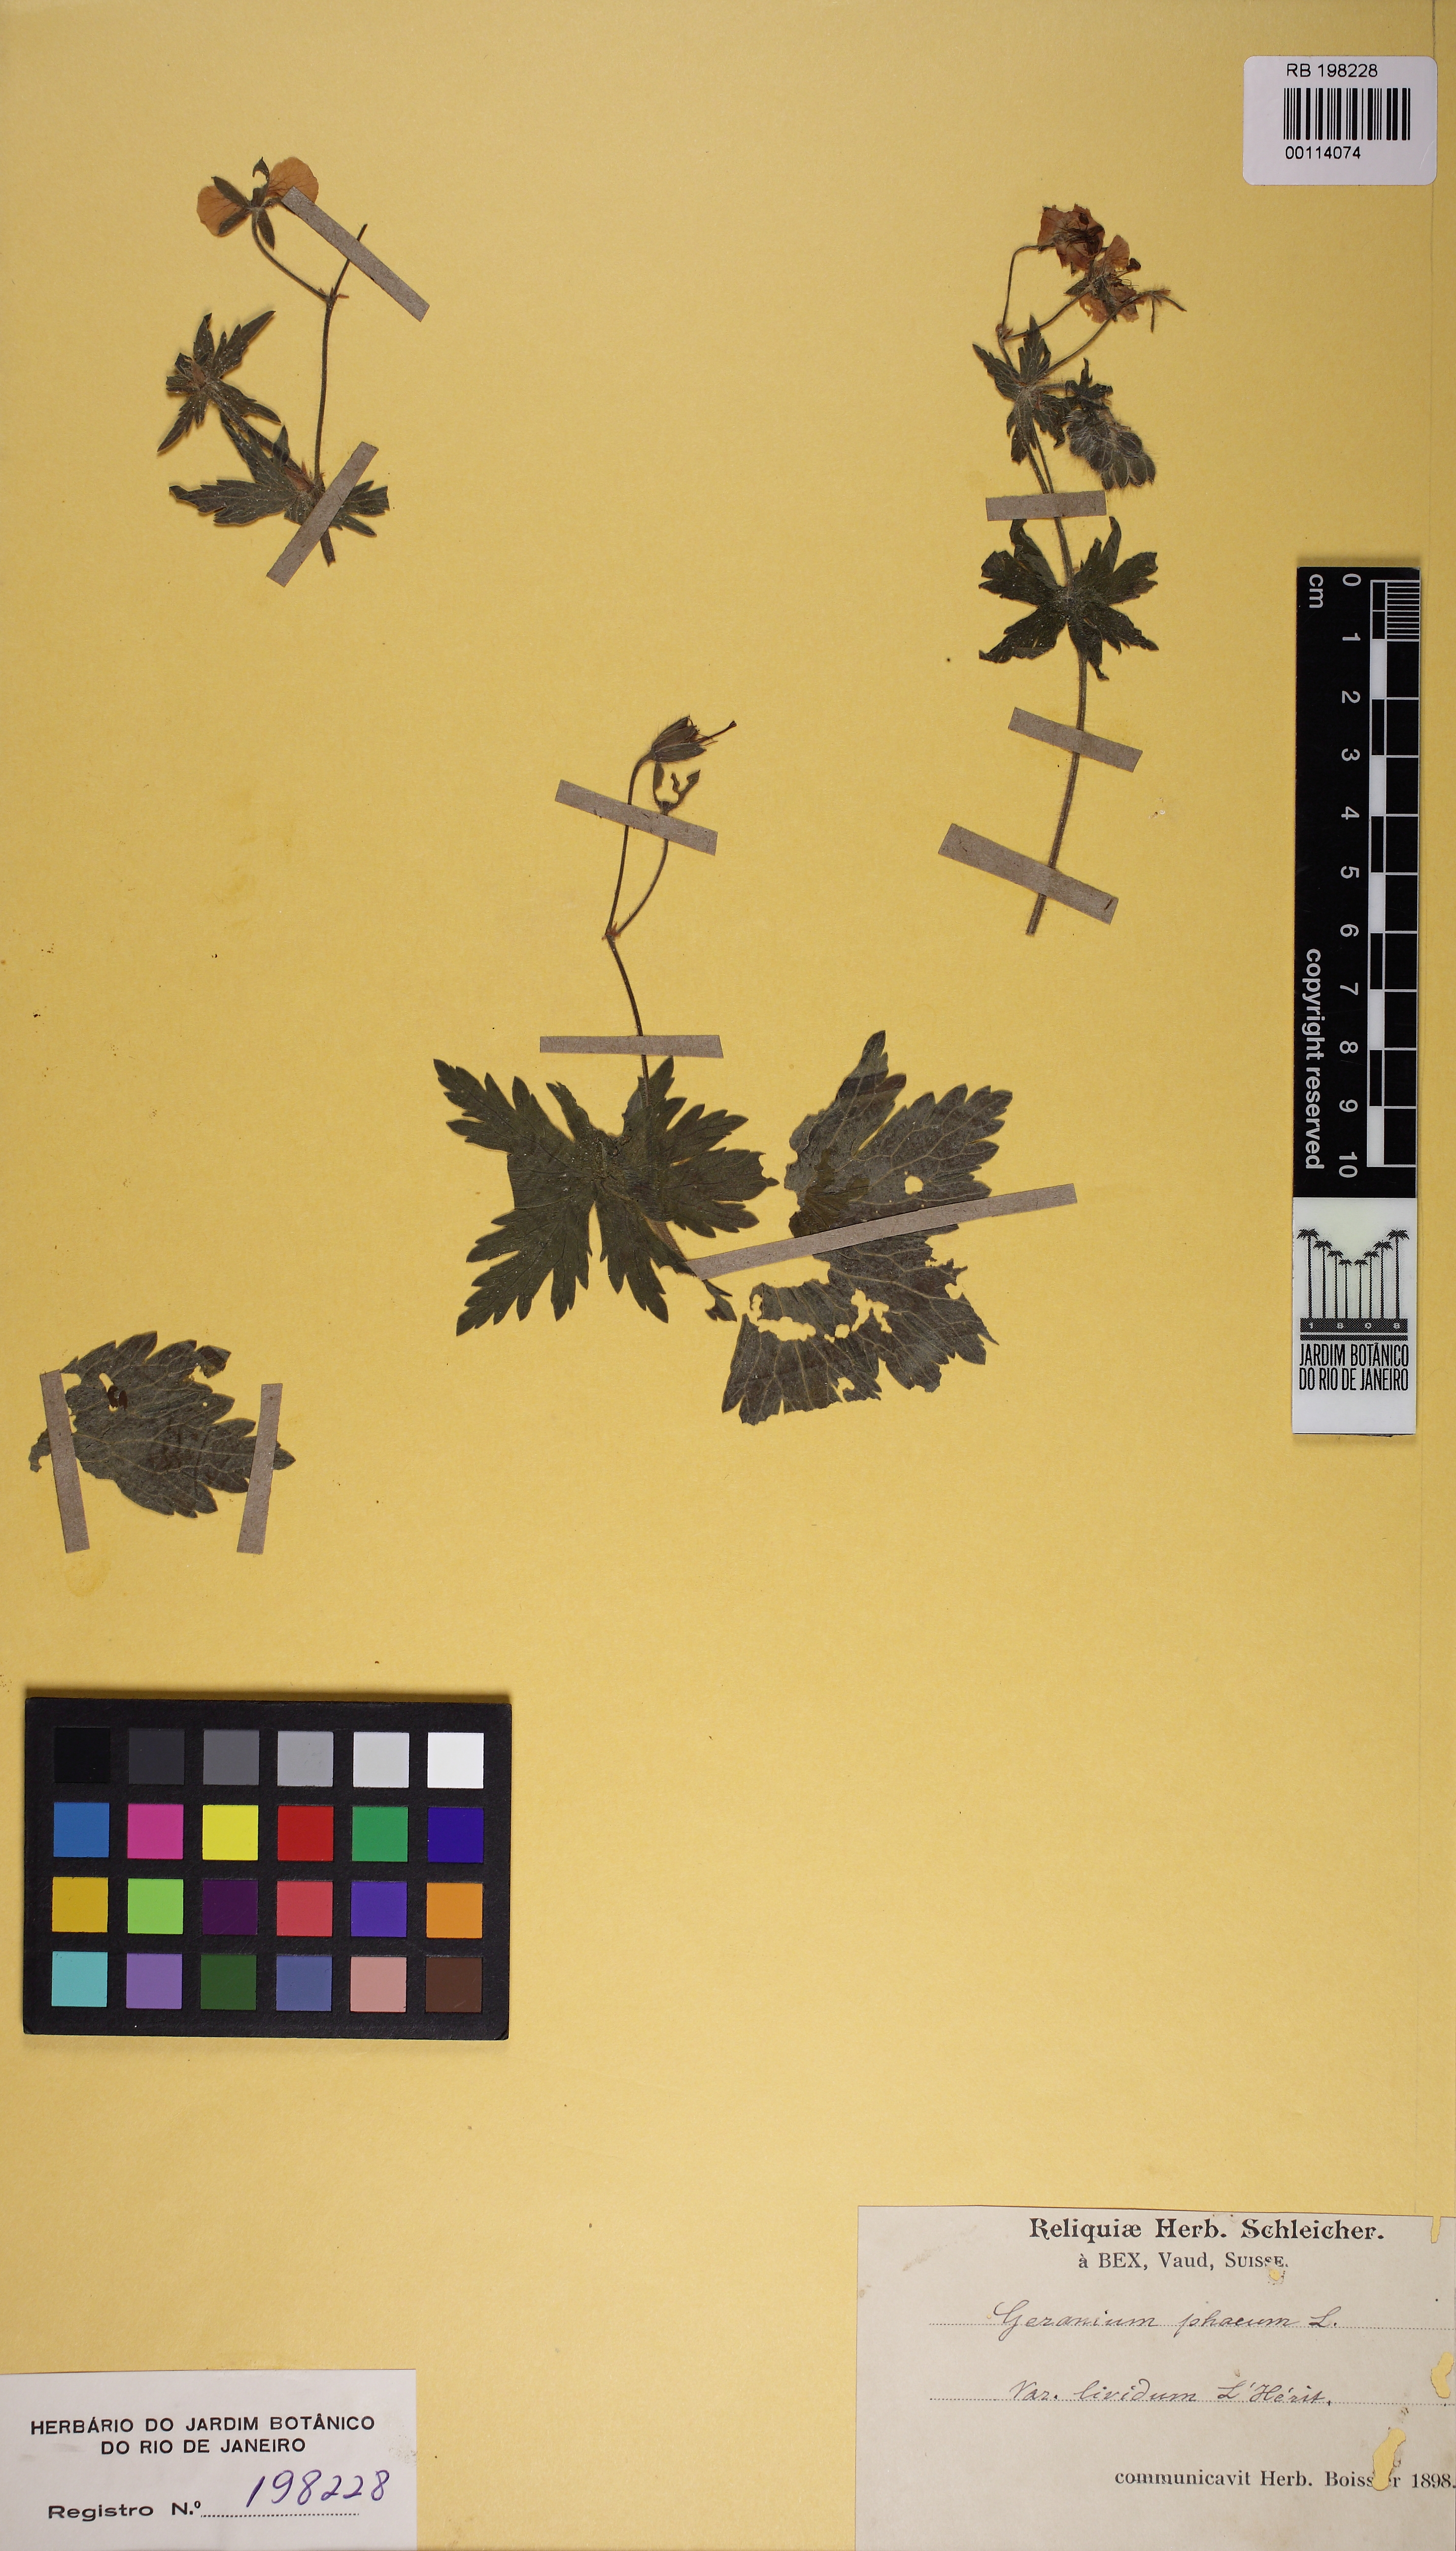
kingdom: Plantae
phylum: Tracheophyta
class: Magnoliopsida
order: Geraniales
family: Geraniaceae
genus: Geranium
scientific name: Geranium
